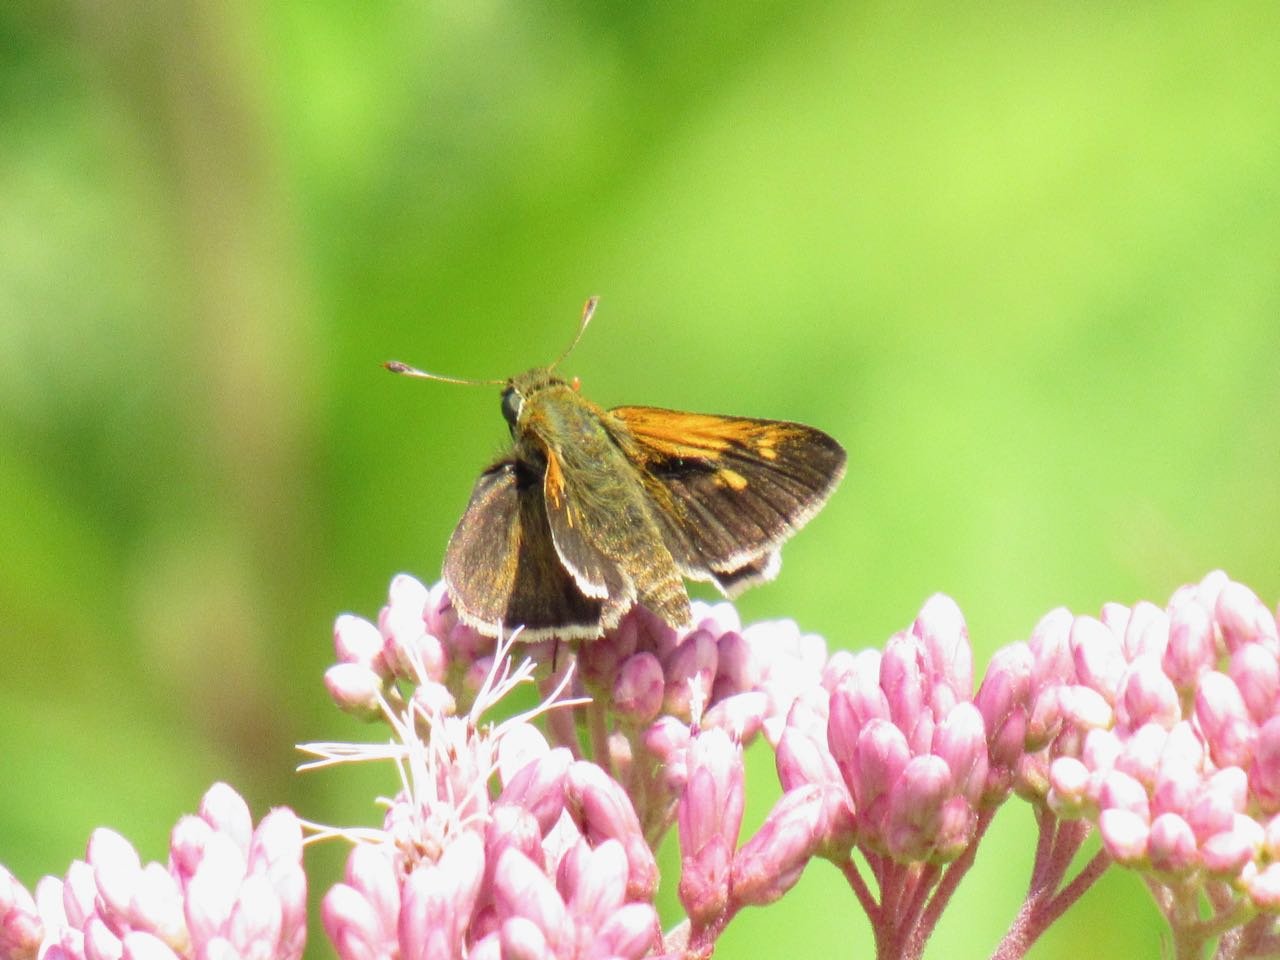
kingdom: Animalia
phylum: Arthropoda
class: Insecta
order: Lepidoptera
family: Hesperiidae
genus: Polites
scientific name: Polites themistocles
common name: Tawny-edged Skipper
